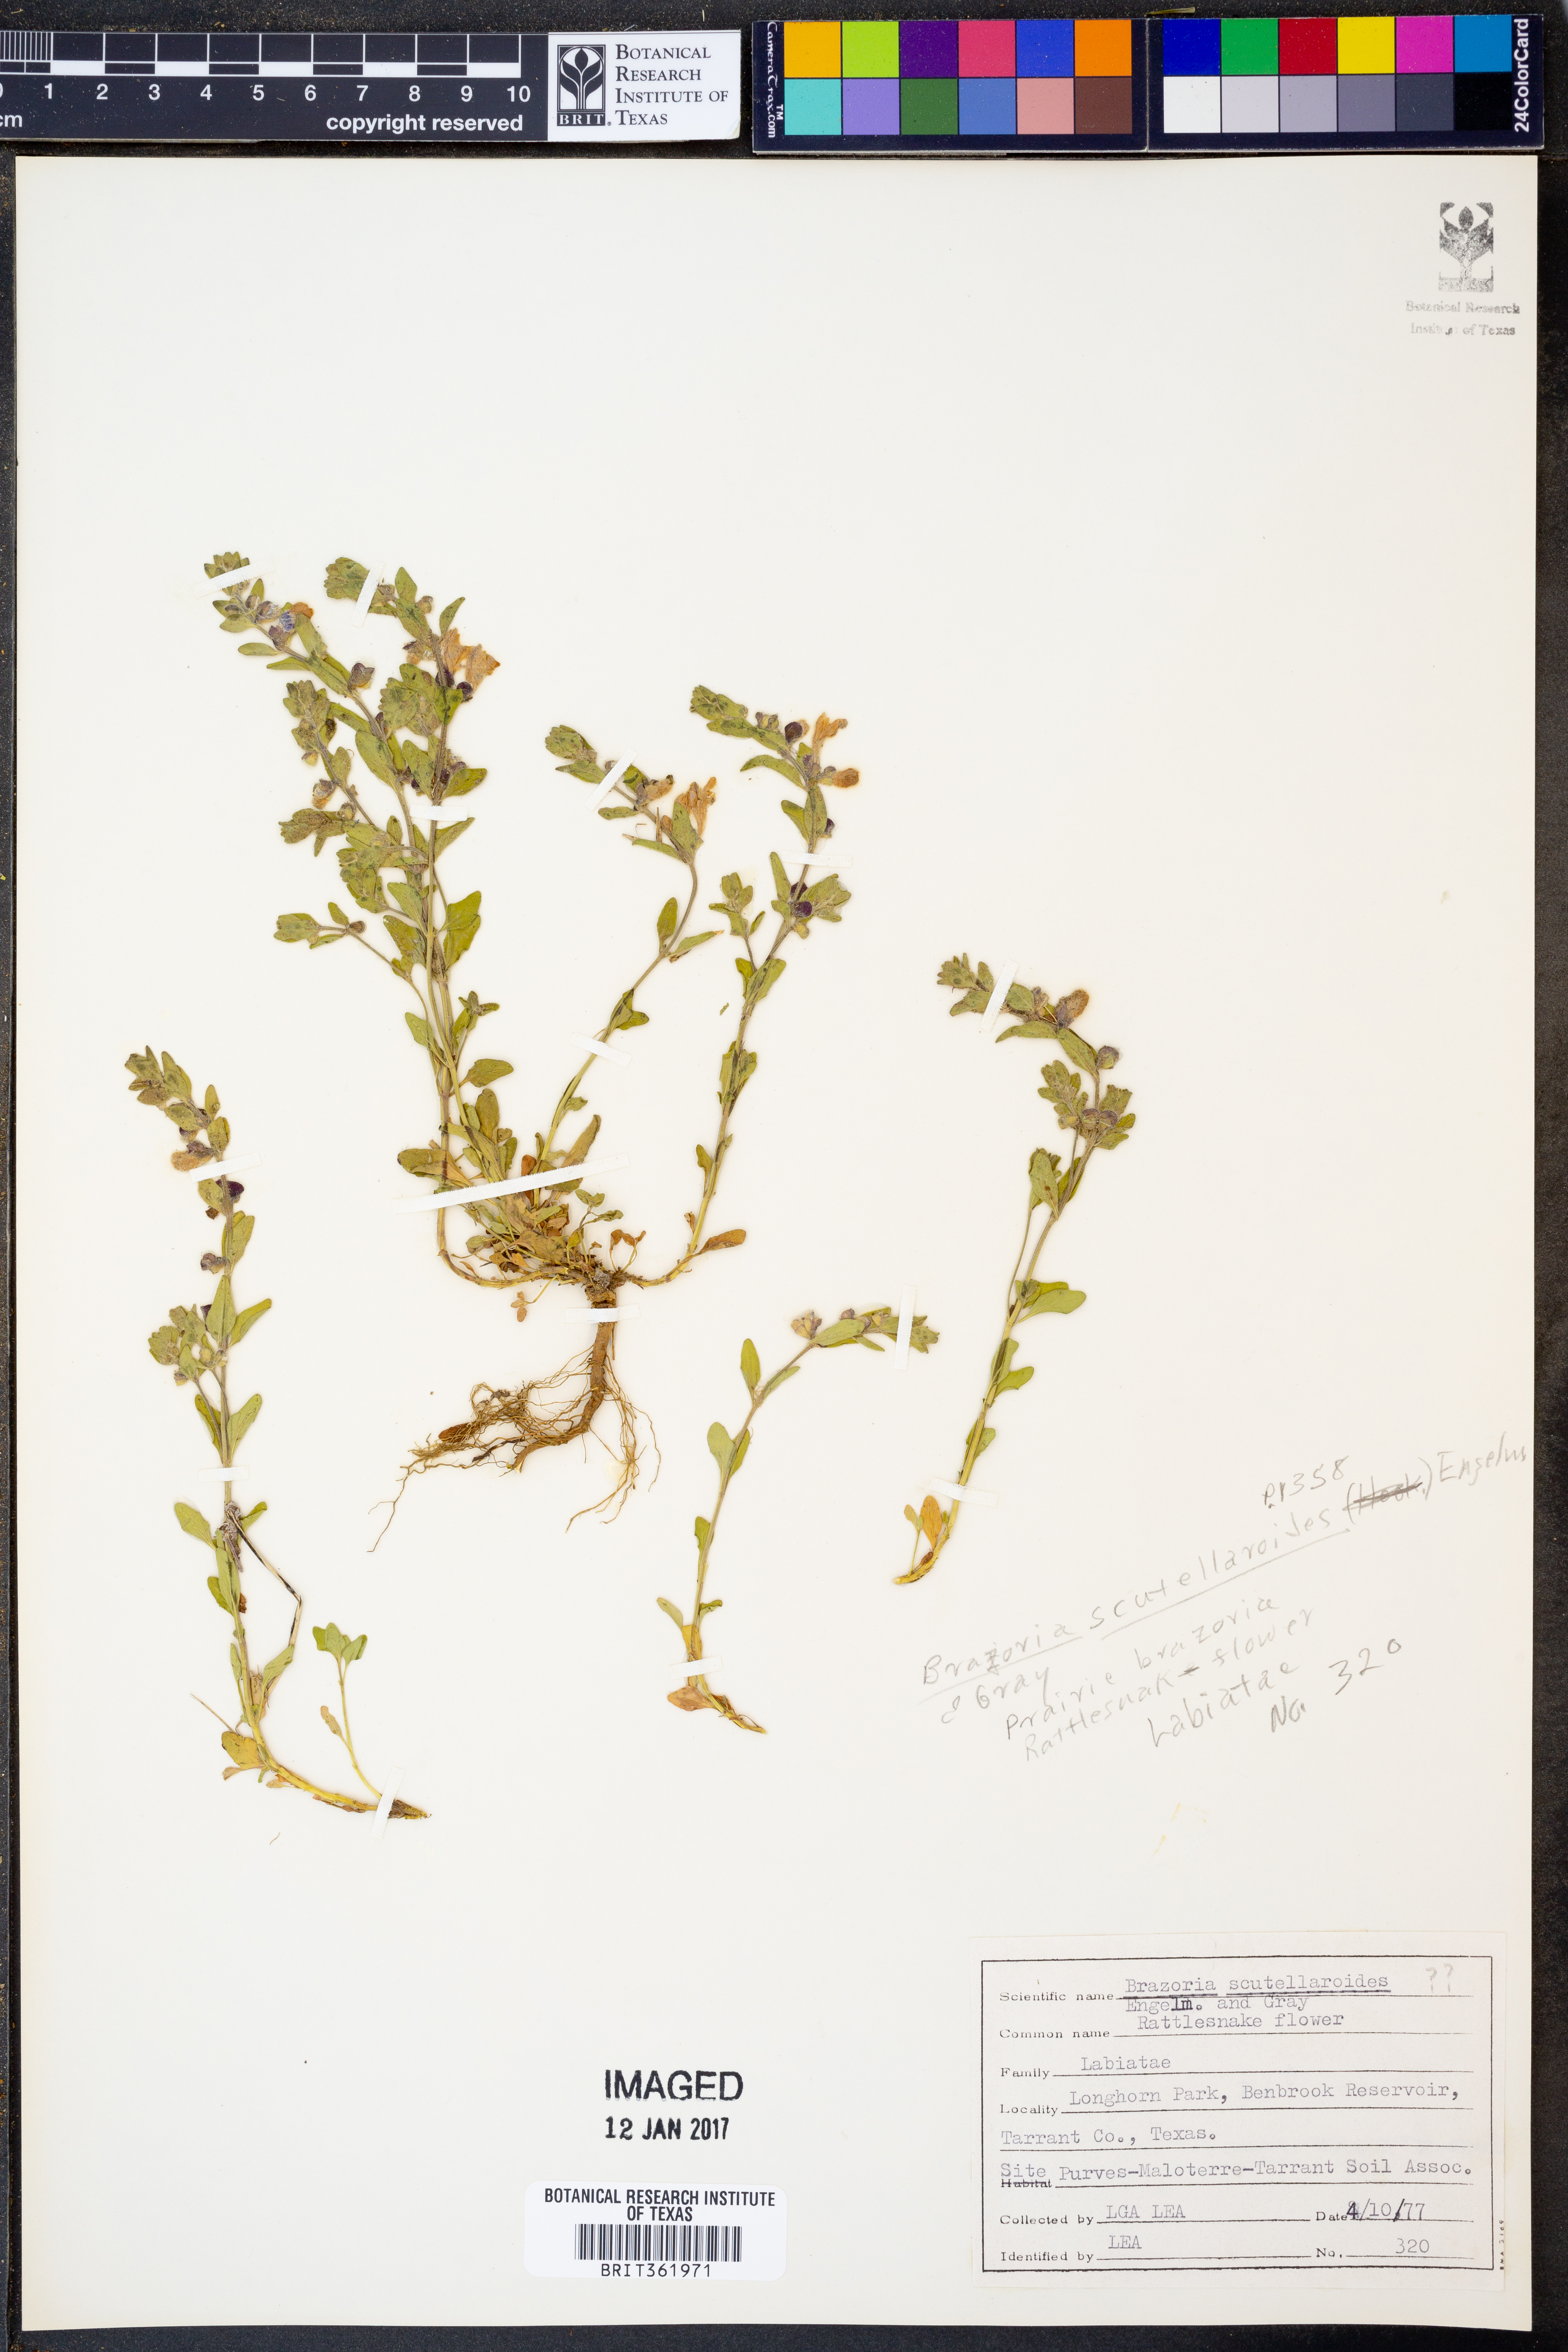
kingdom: Plantae
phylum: Tracheophyta
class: Magnoliopsida
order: Lamiales
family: Lamiaceae
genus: Warnockia
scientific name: Warnockia scutellarioides
